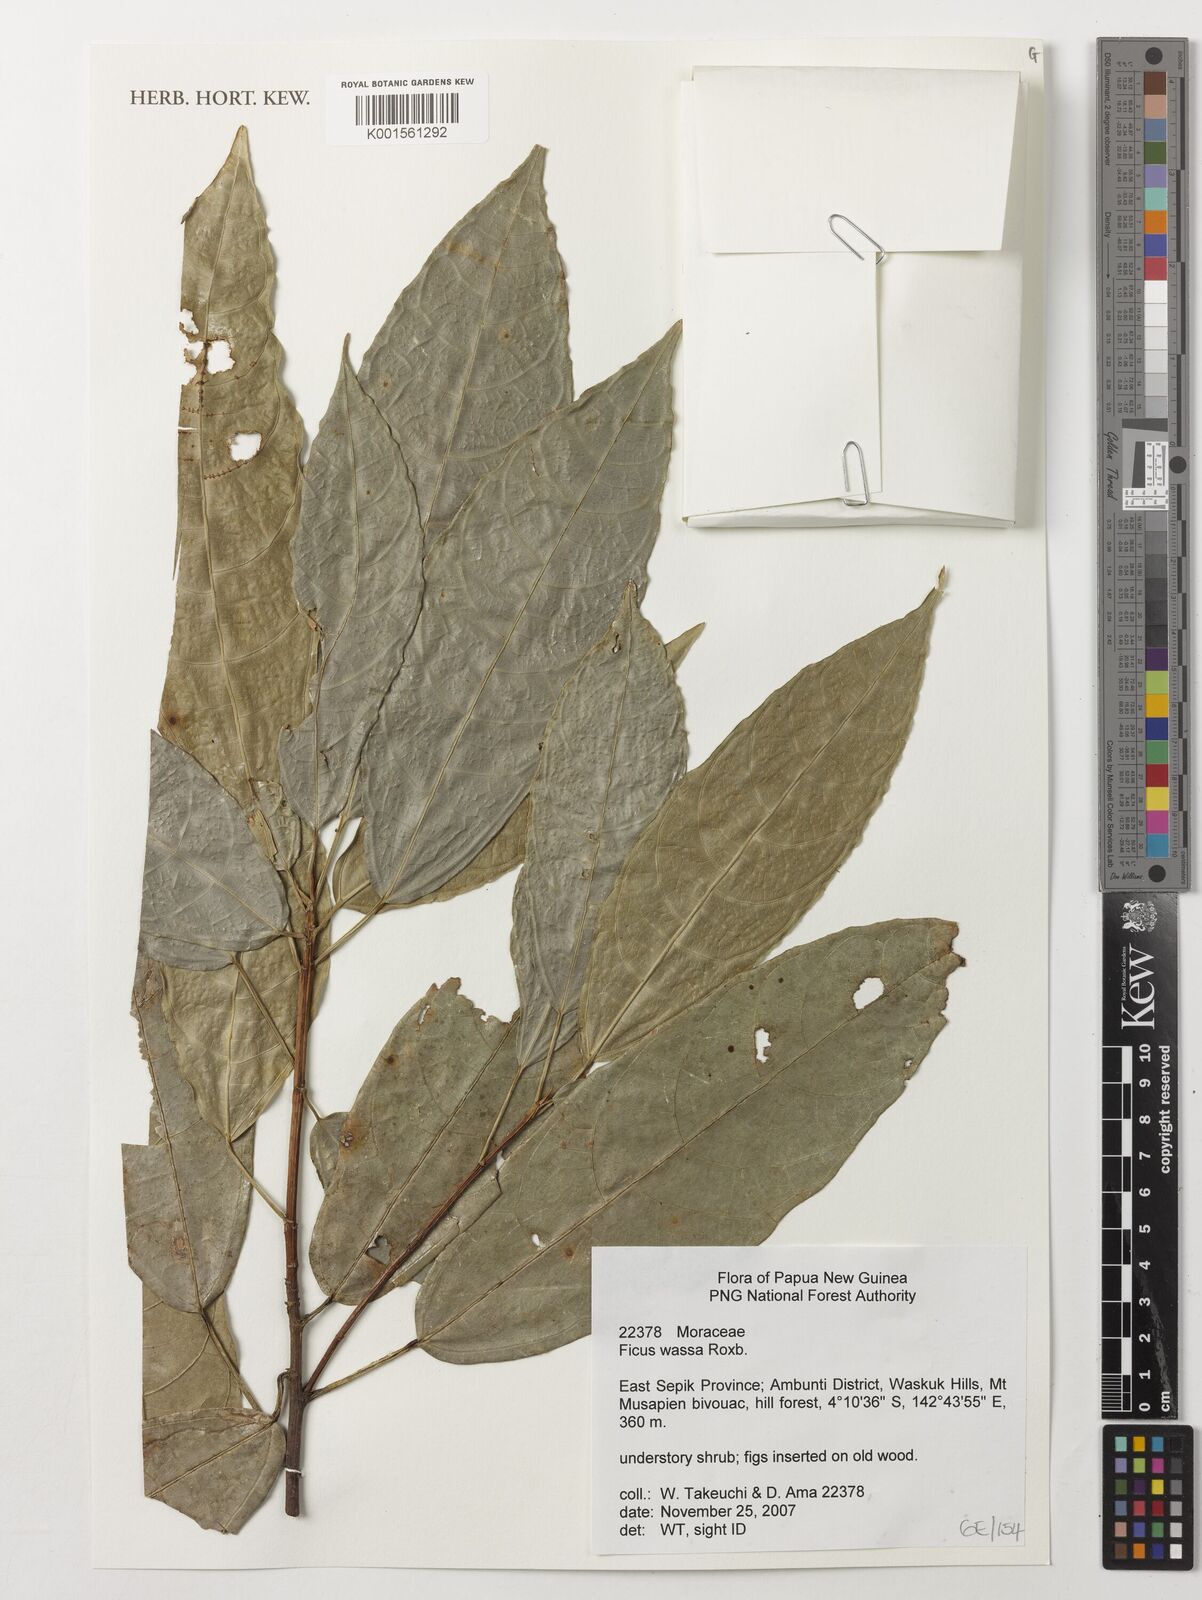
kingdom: Plantae
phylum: Tracheophyta
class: Magnoliopsida
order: Rosales
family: Moraceae
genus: Ficus
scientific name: Ficus wassa
